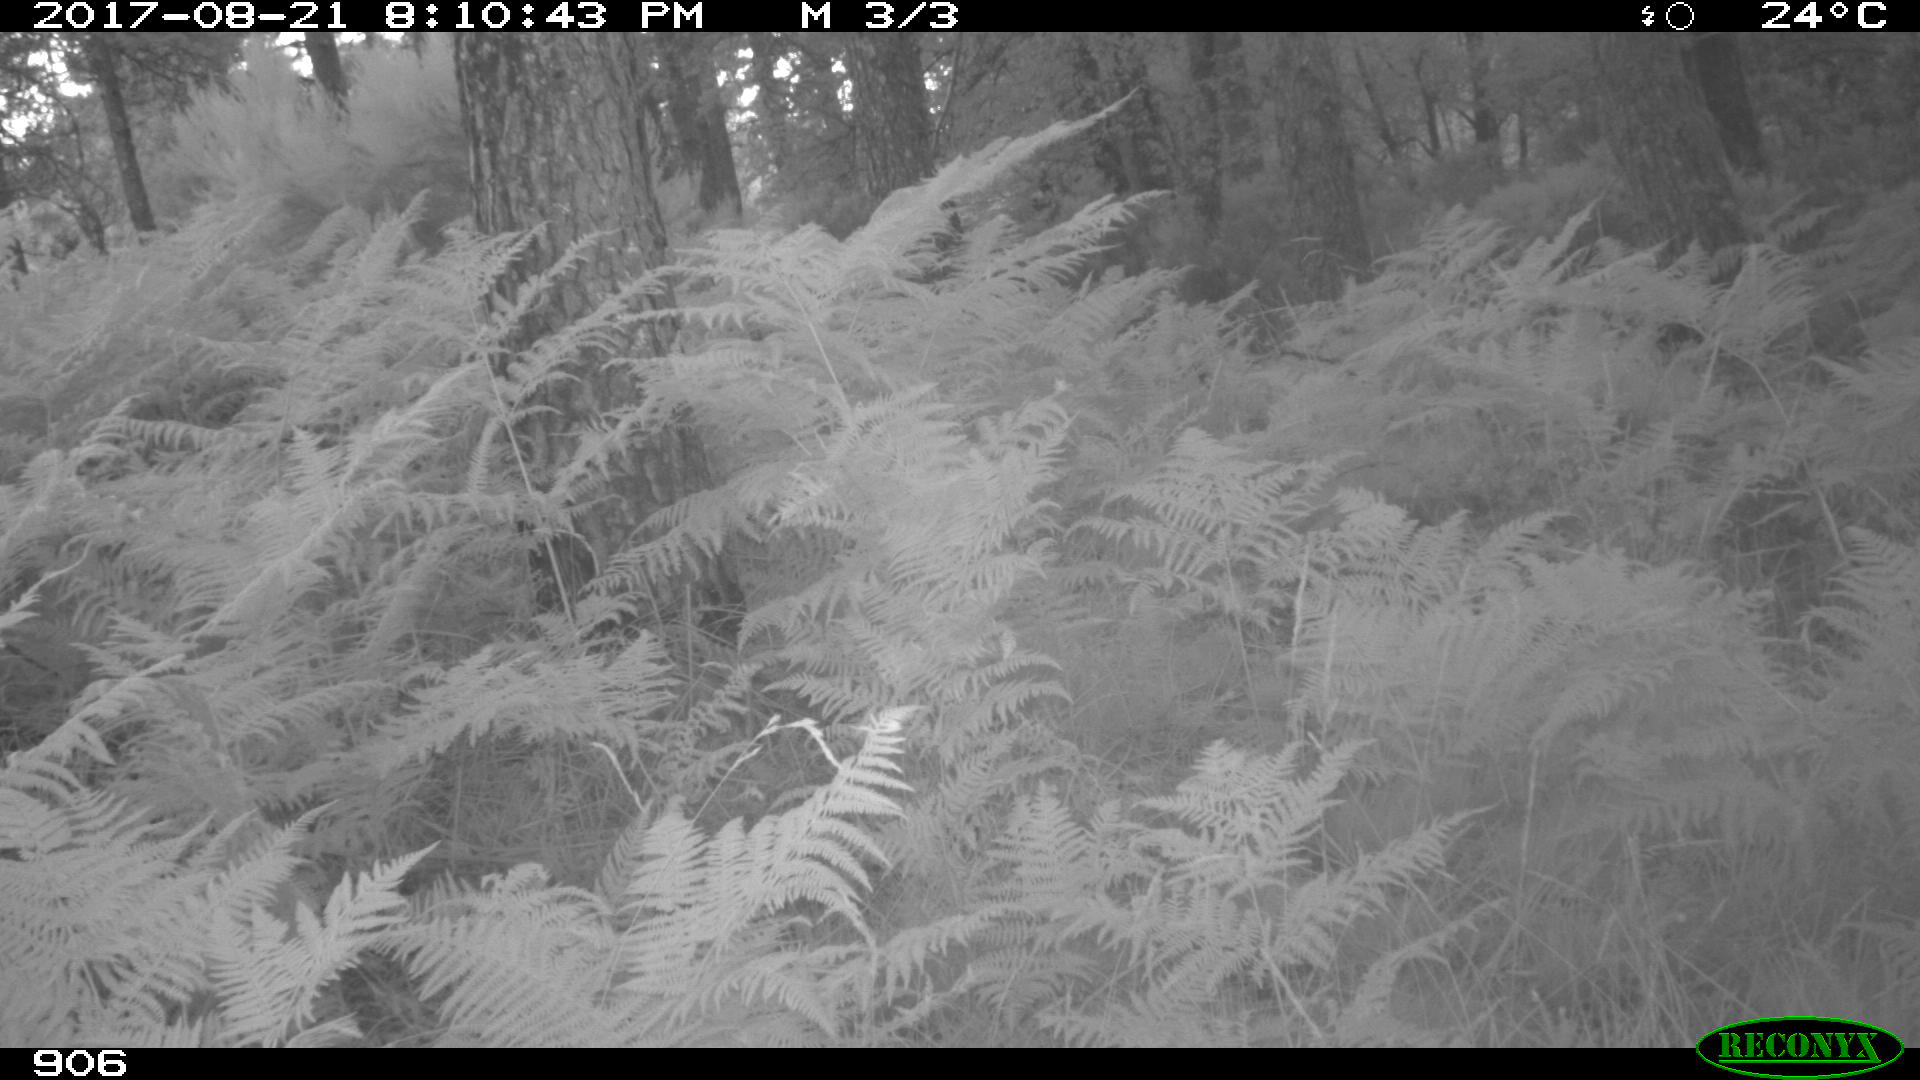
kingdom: Animalia
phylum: Chordata
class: Mammalia
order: Perissodactyla
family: Equidae
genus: Equus
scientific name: Equus caballus
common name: Horse
